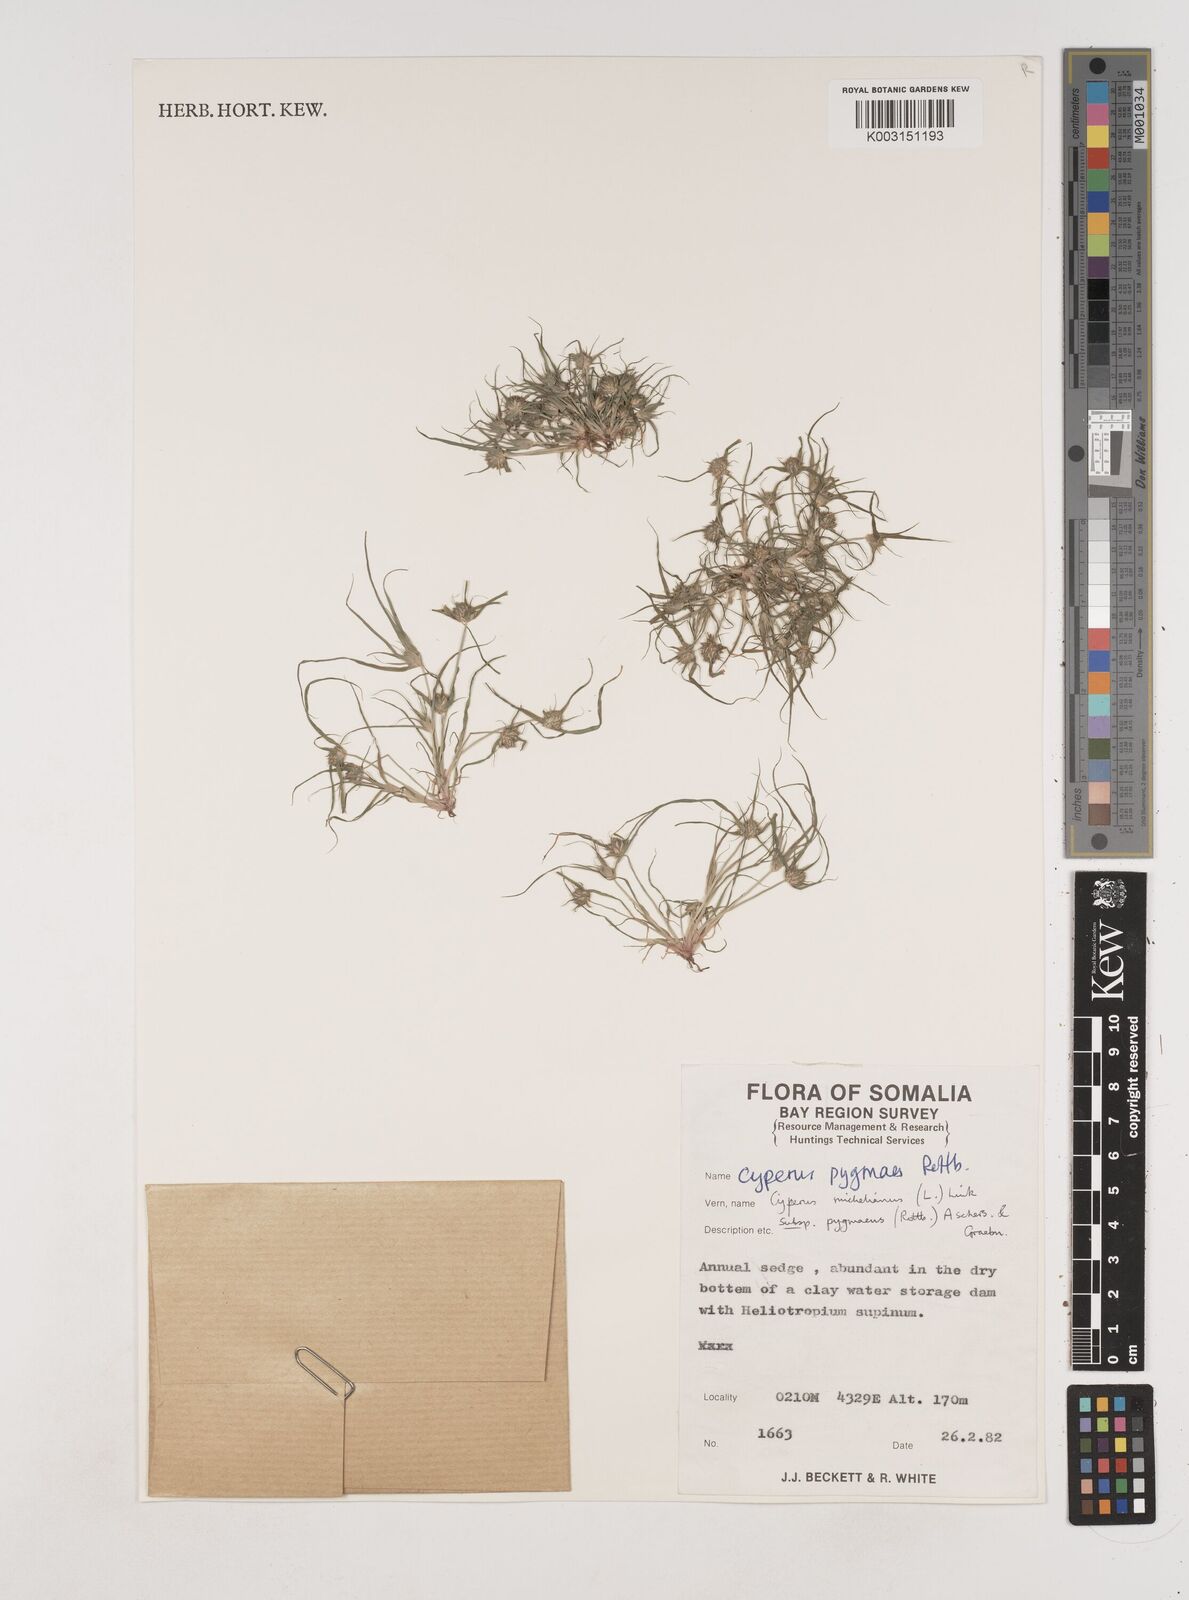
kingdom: Plantae
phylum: Tracheophyta
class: Liliopsida
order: Poales
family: Cyperaceae
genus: Cyperus
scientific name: Cyperus michelianus
